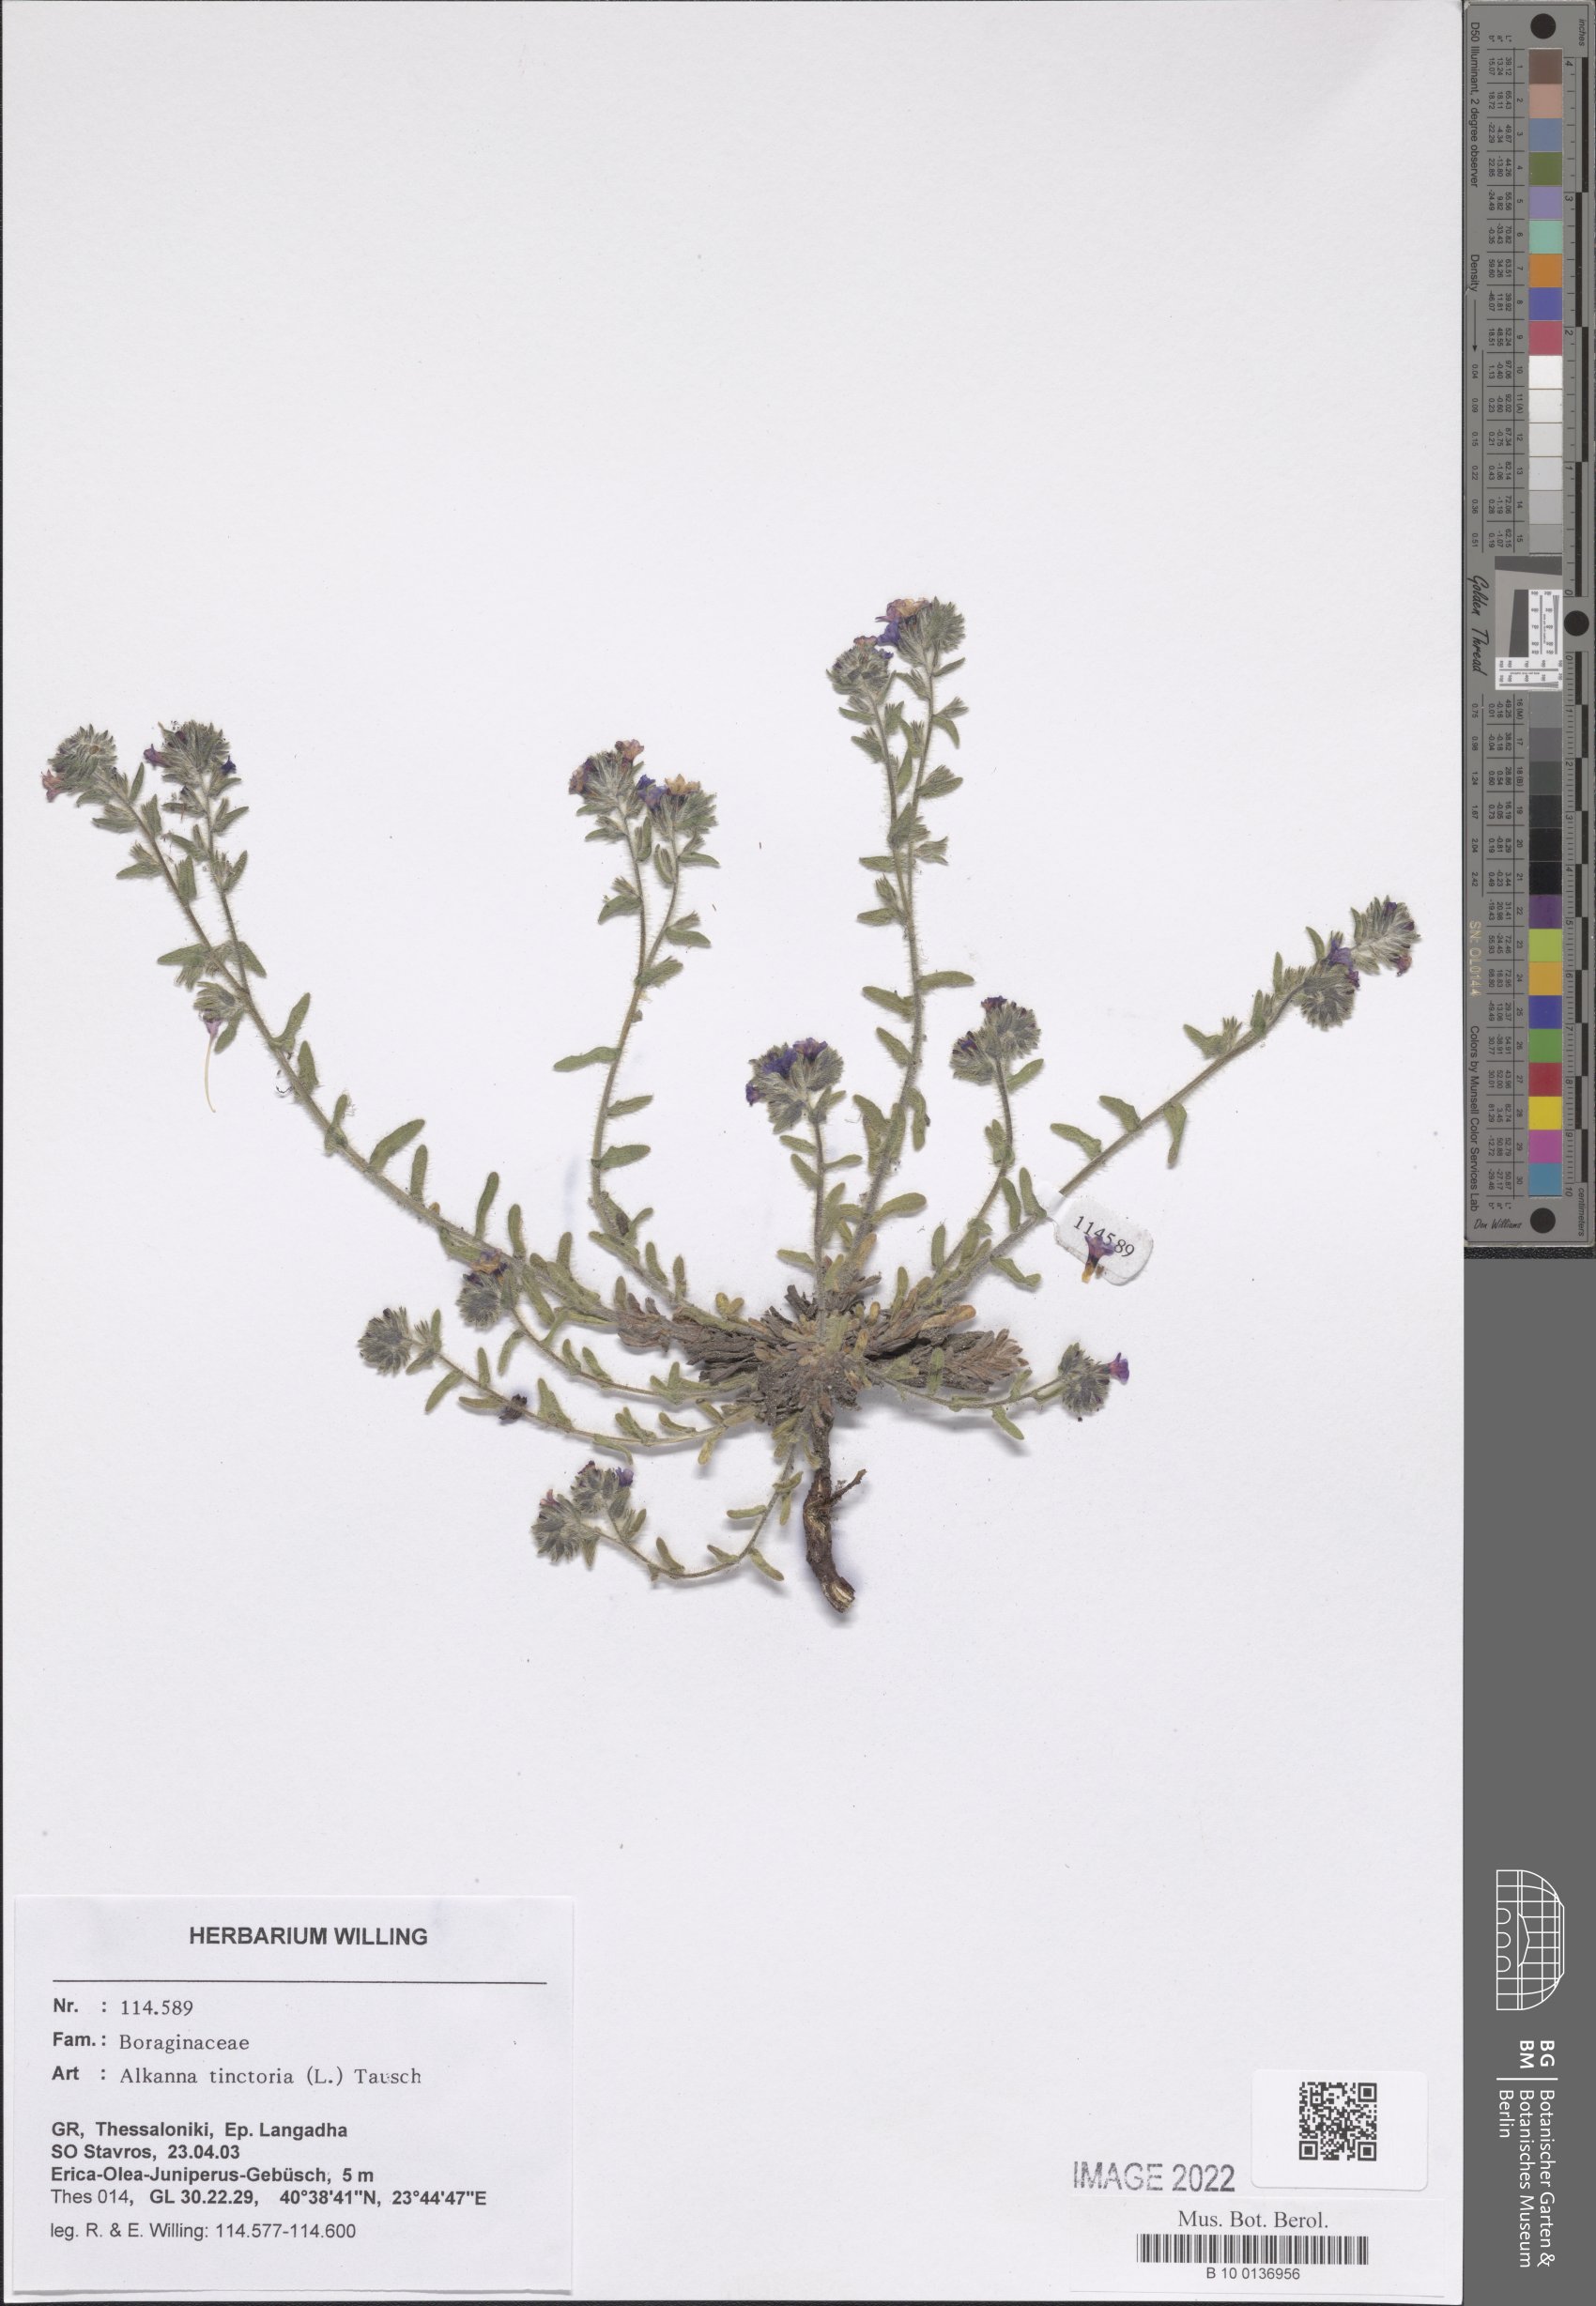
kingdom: Plantae
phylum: Tracheophyta
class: Magnoliopsida
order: Boraginales
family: Boraginaceae
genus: Alkanna
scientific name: Alkanna tinctoria
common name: Dyer's-alkanet
